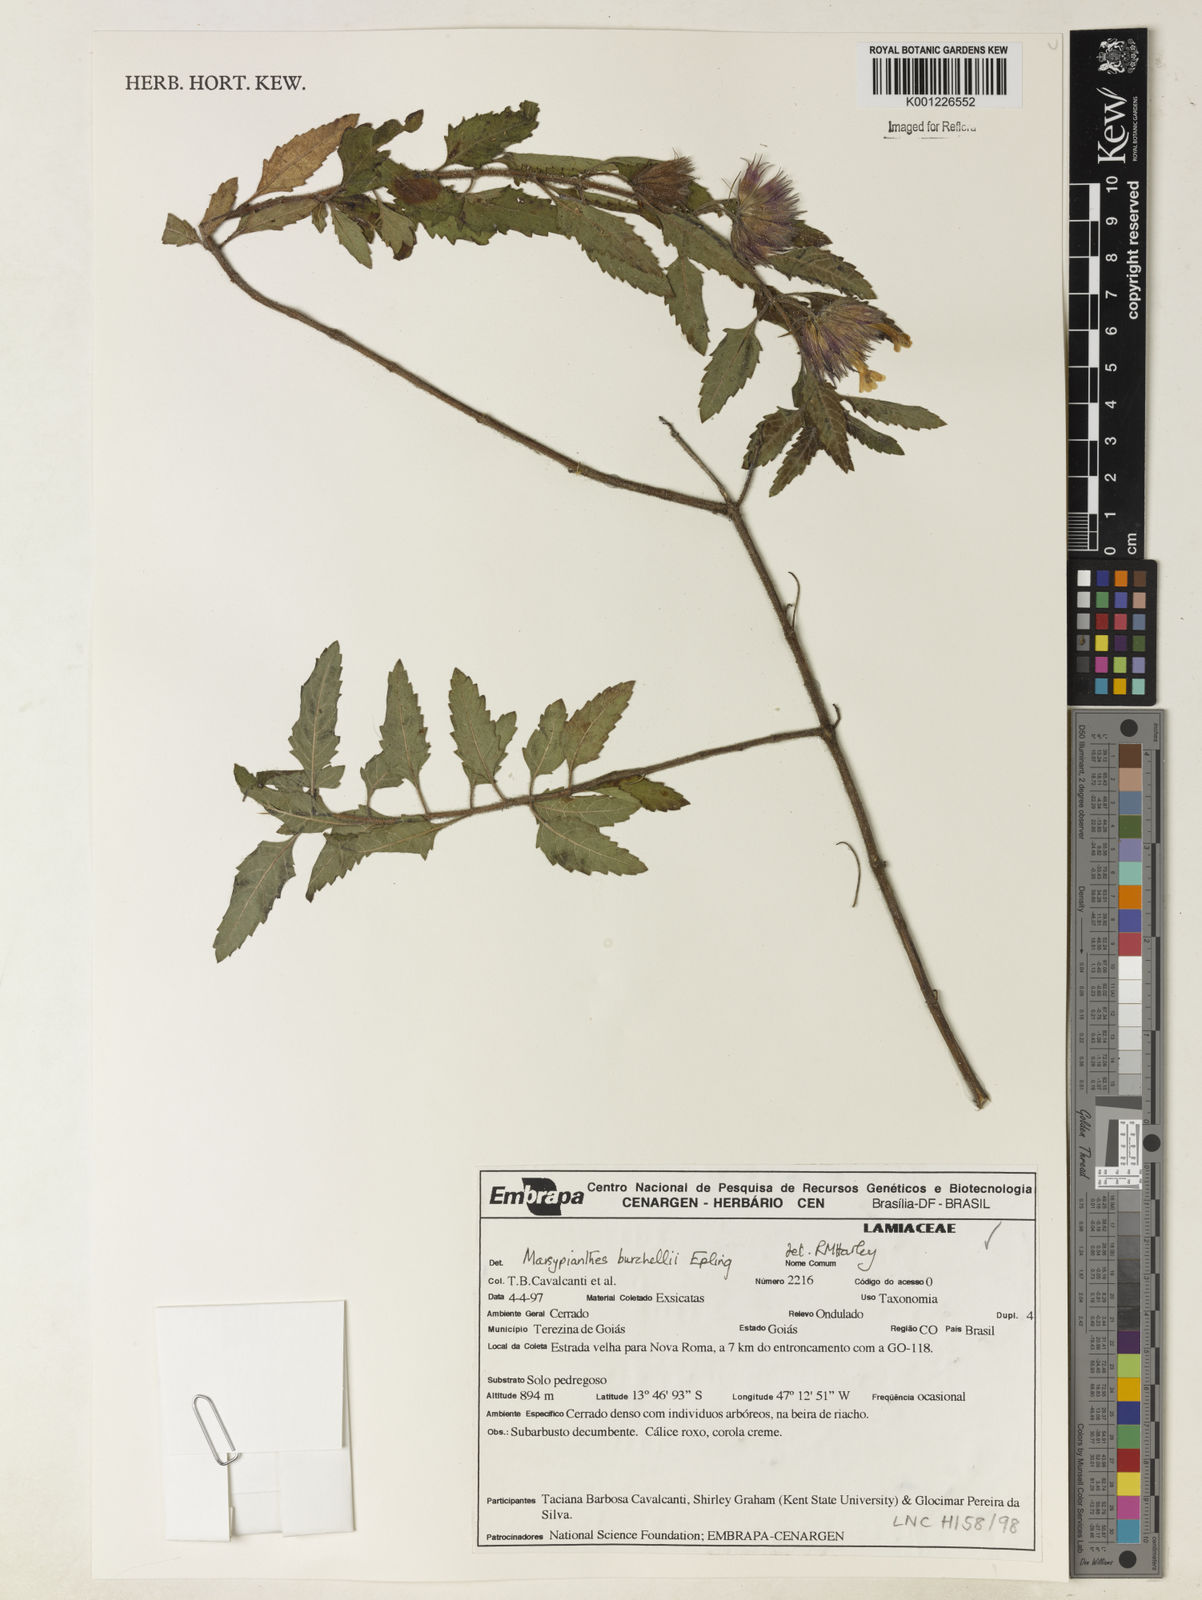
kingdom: Plantae
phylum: Tracheophyta
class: Magnoliopsida
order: Lamiales
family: Lamiaceae
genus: Marsypianthes
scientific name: Marsypianthes burchellii
